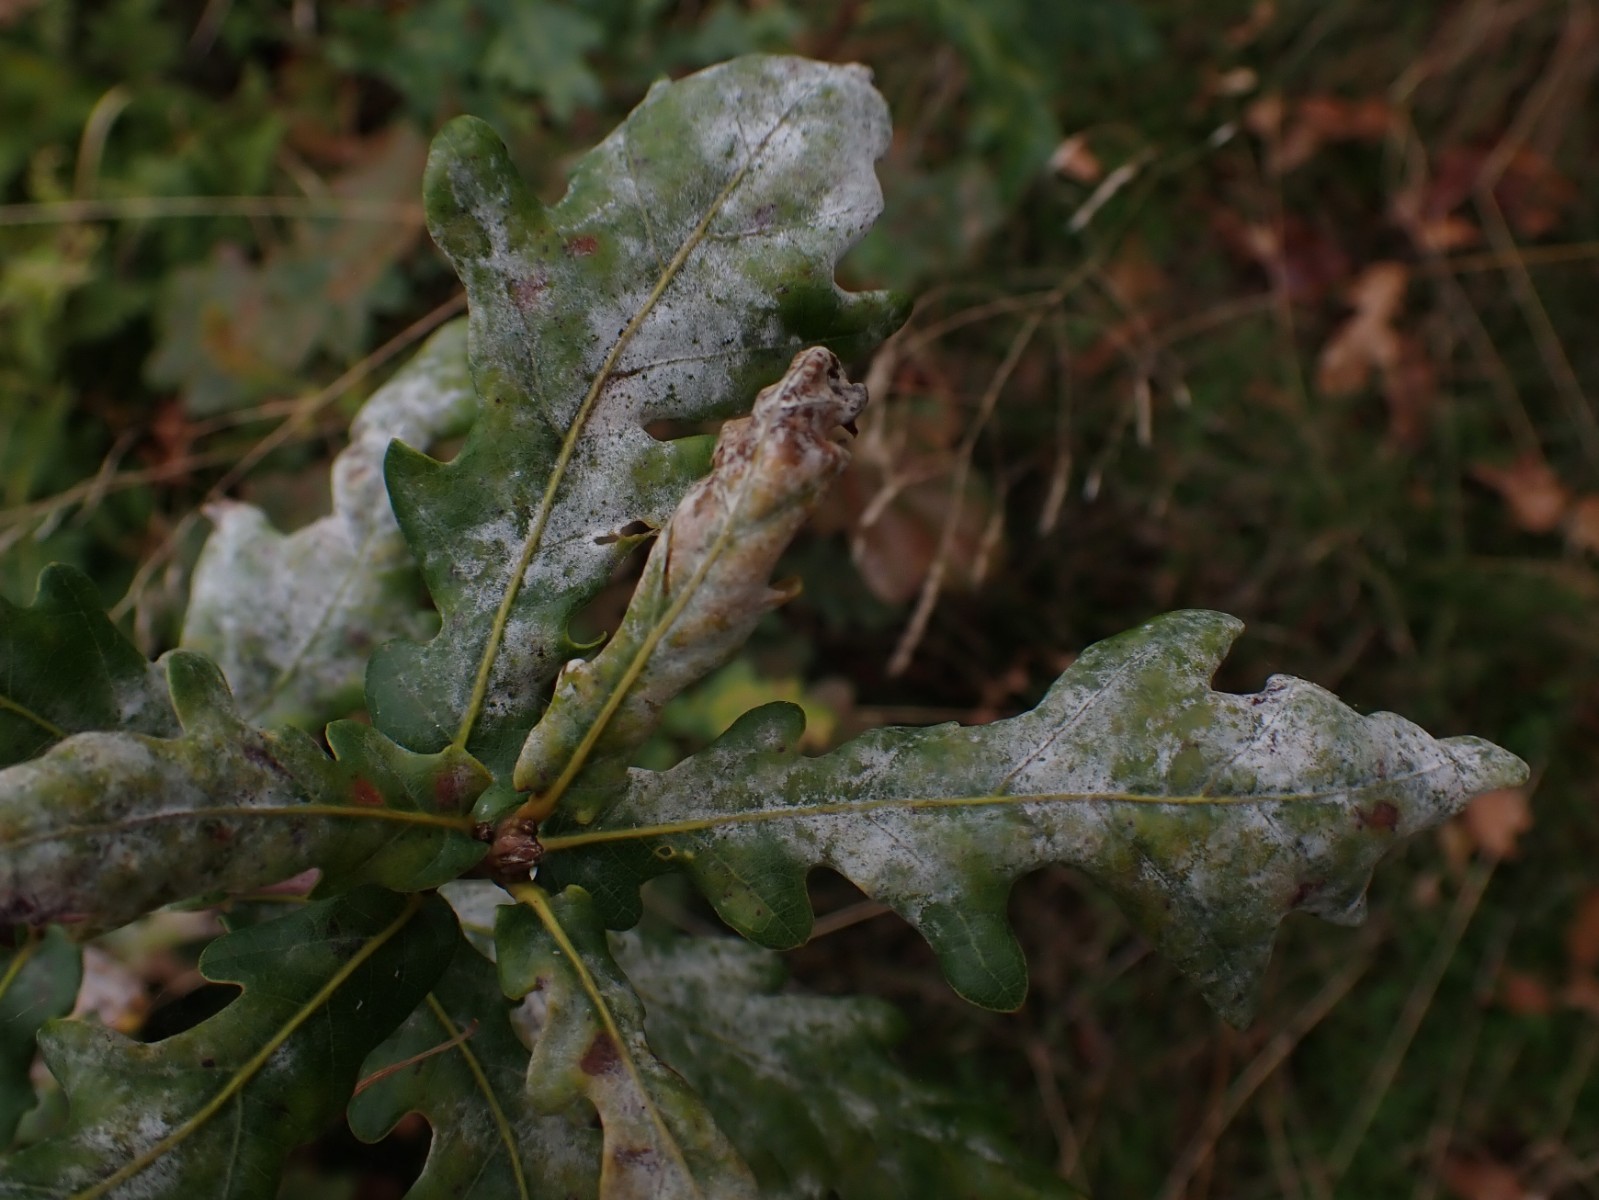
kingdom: Fungi
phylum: Ascomycota
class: Leotiomycetes
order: Helotiales
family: Erysiphaceae
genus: Erysiphe
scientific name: Erysiphe alphitoides
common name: ege-meldug
